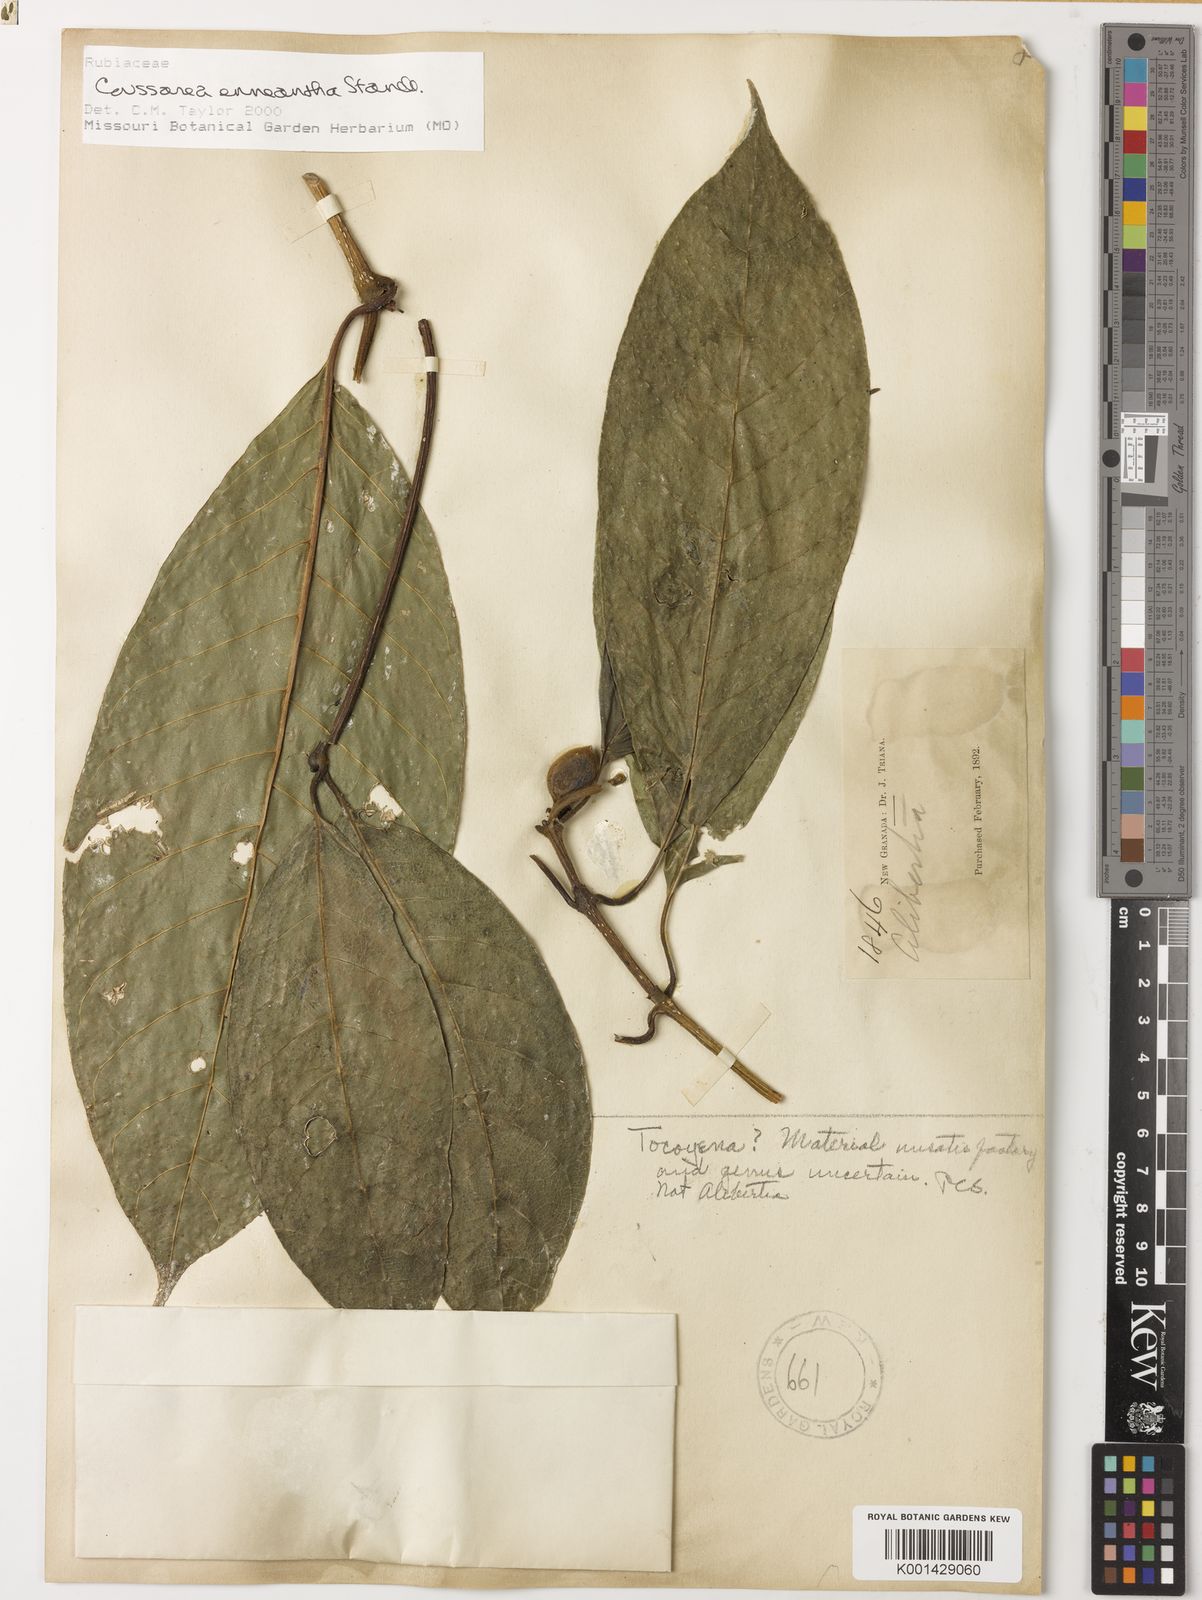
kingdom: Plantae
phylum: Tracheophyta
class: Magnoliopsida
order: Gentianales
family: Rubiaceae
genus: Coussarea
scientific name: Coussarea enneantha
